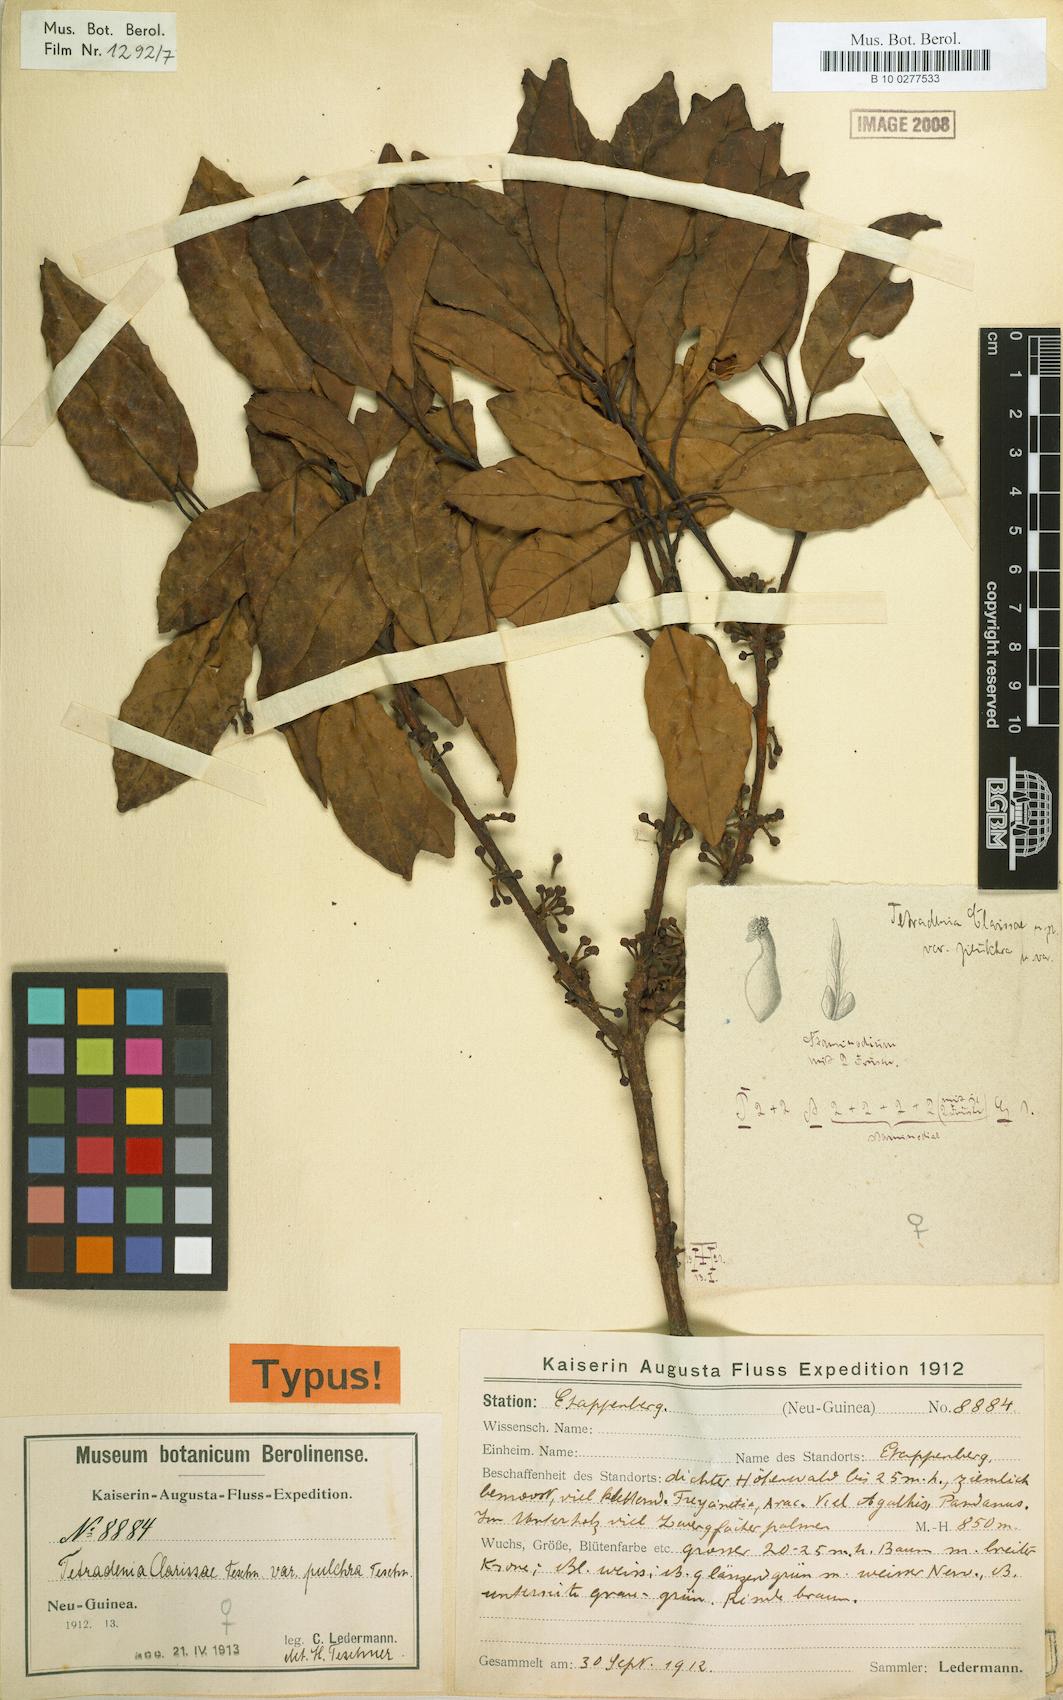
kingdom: Plantae
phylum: Tracheophyta
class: Magnoliopsida
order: Laurales
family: Lauraceae
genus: Litsea
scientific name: Litsea clarissae
